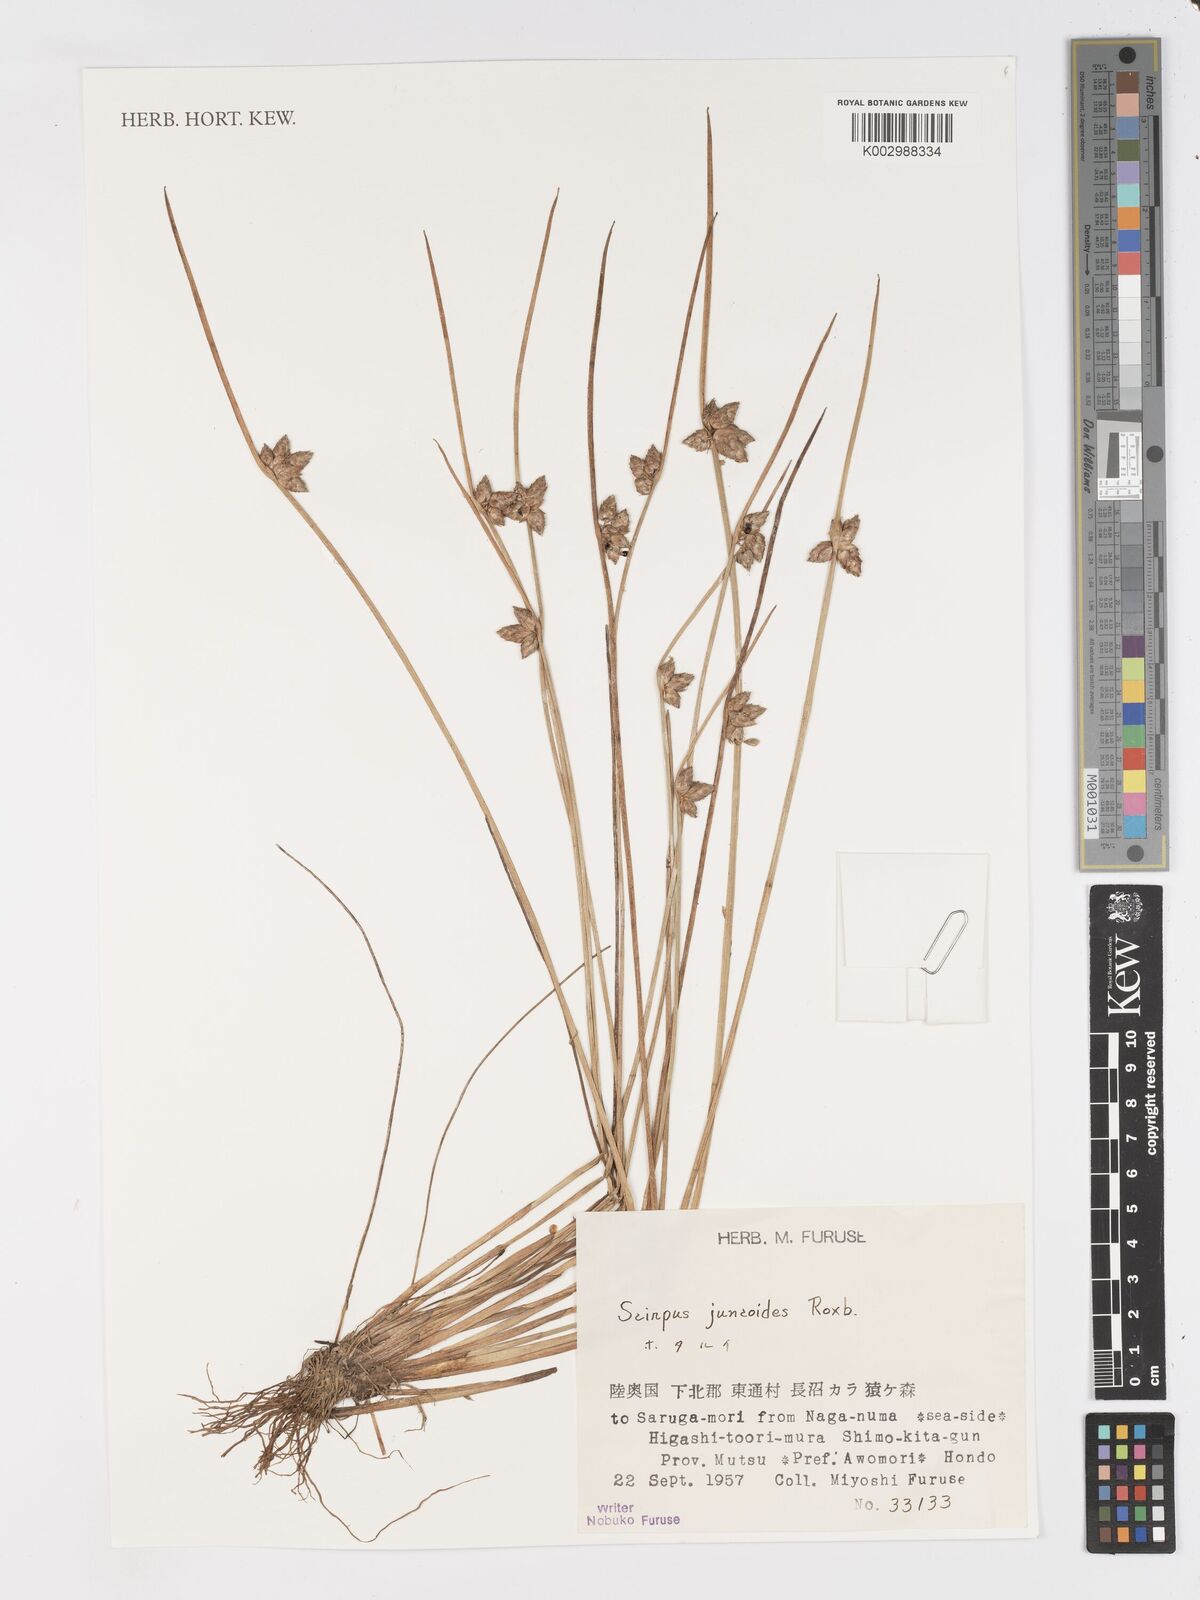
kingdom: Plantae
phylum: Tracheophyta
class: Liliopsida
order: Poales
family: Cyperaceae
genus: Schoenoplectiella
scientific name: Schoenoplectiella juncoides
